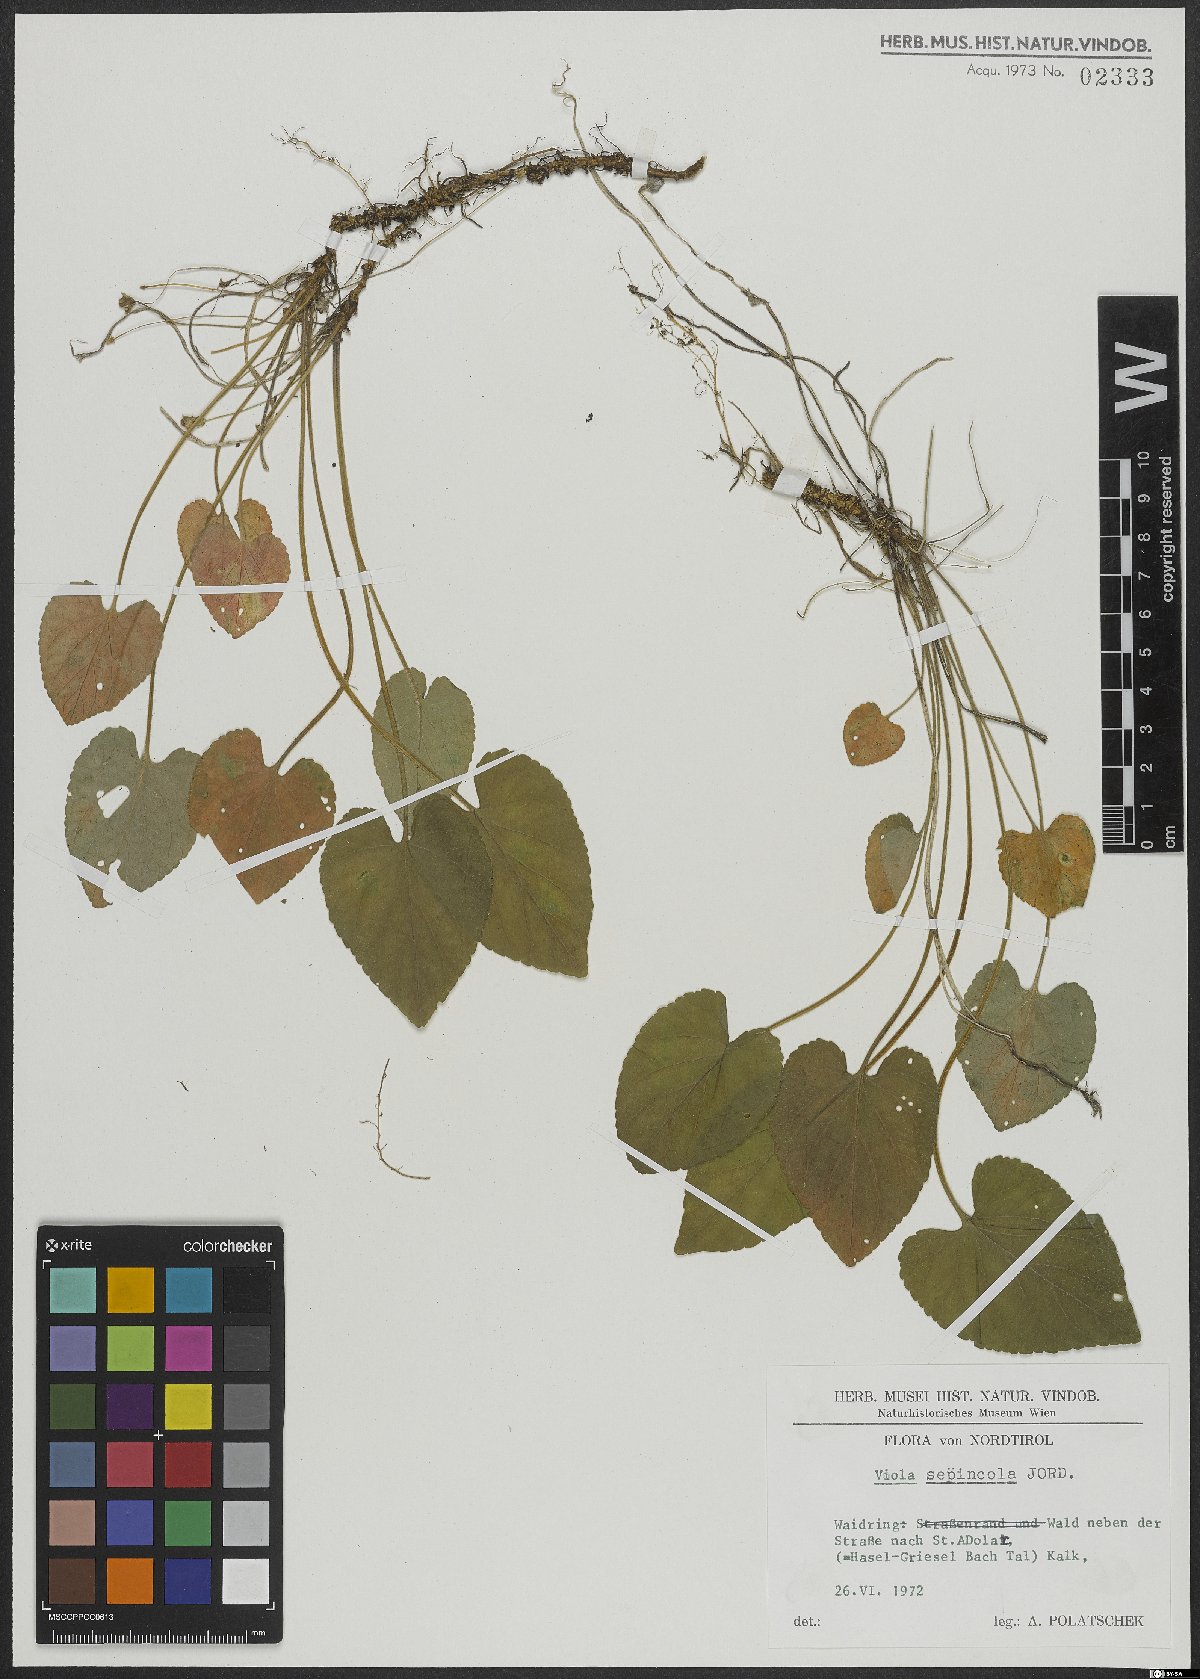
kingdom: Plantae
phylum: Tracheophyta
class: Magnoliopsida
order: Malpighiales
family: Violaceae
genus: Viola
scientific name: Viola suavis
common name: Russian violet
